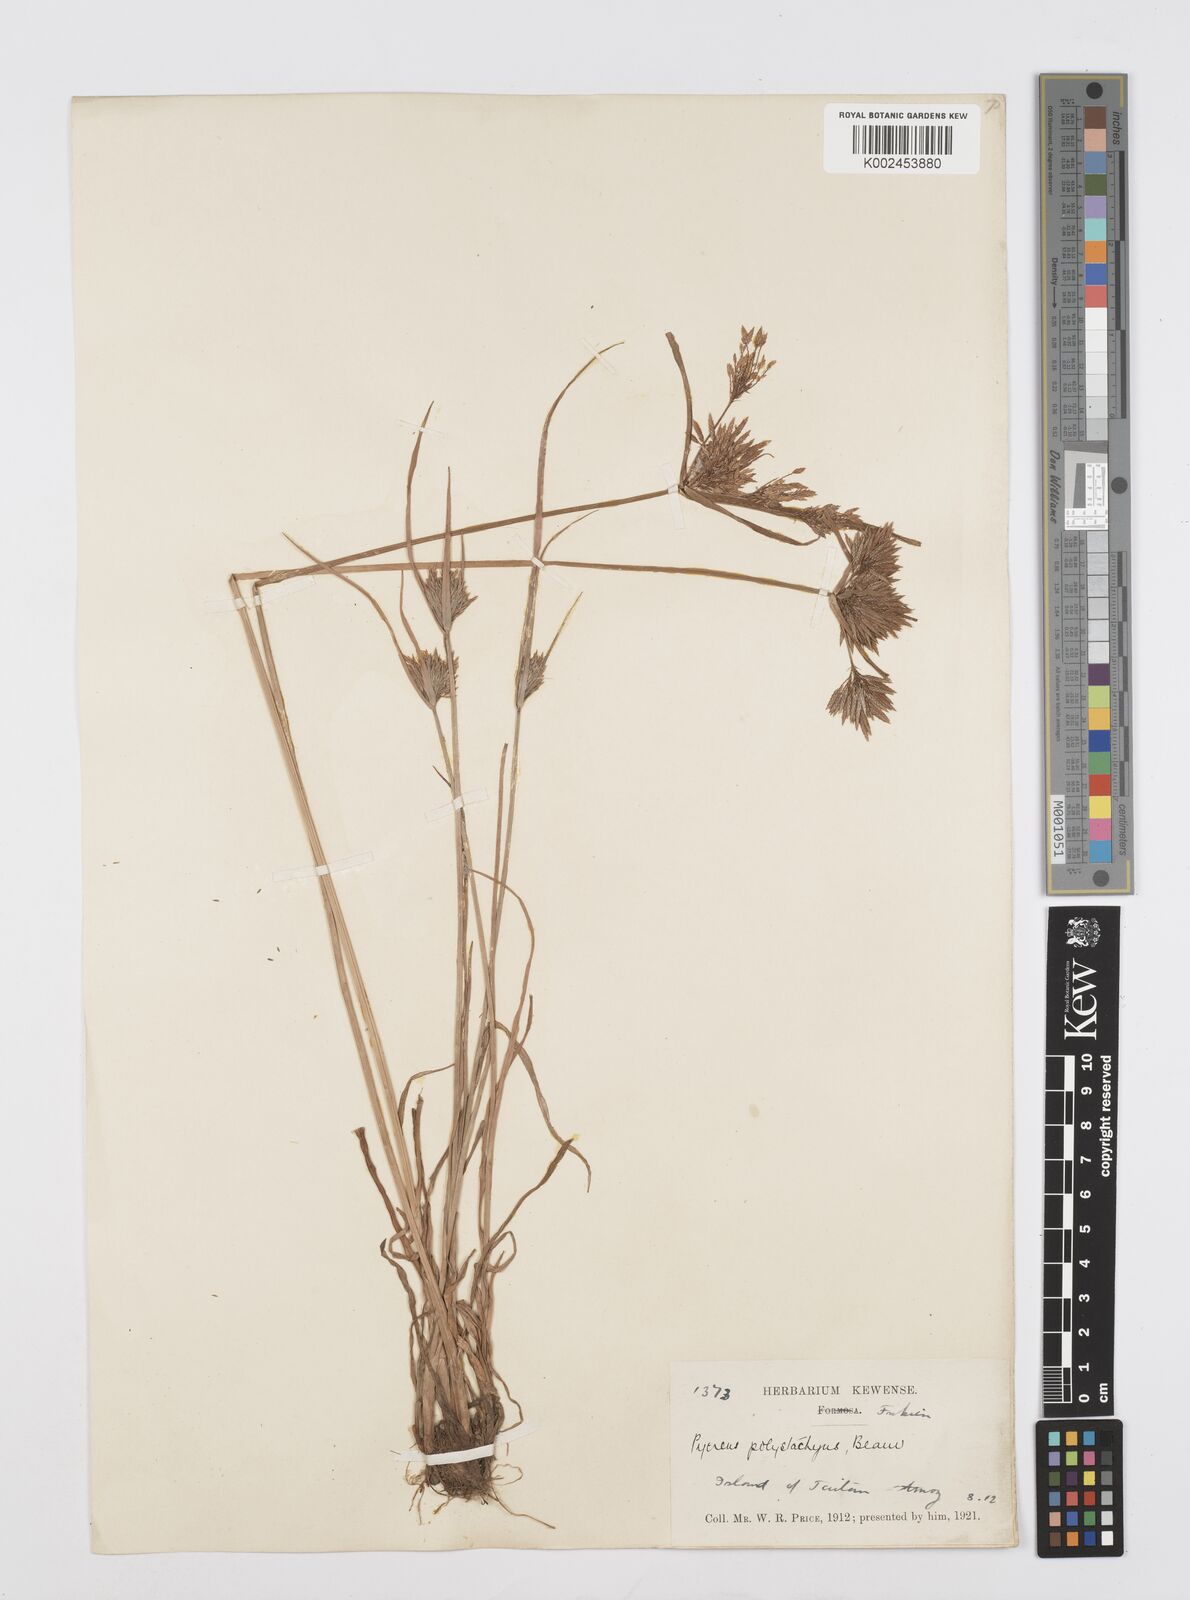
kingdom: Plantae
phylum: Tracheophyta
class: Liliopsida
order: Poales
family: Cyperaceae
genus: Cyperus
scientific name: Cyperus polystachyos
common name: Bunchy flat sedge
